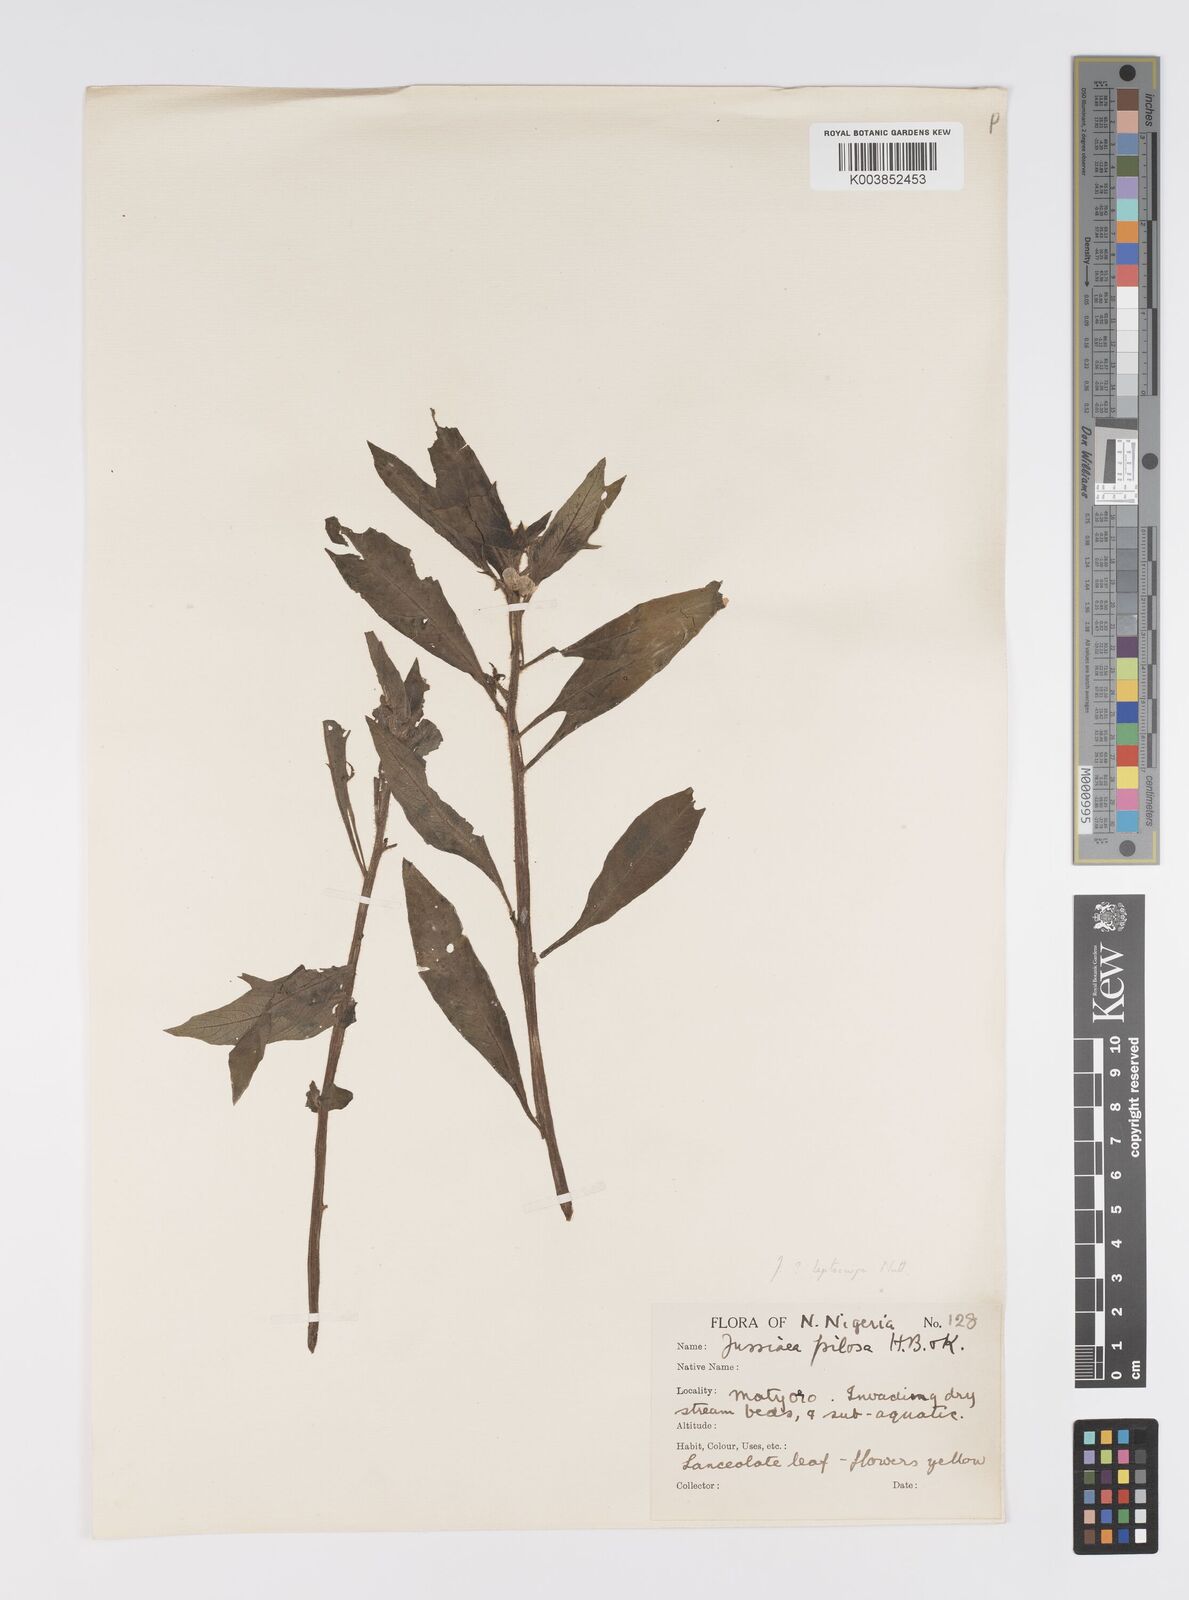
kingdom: Plantae
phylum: Tracheophyta
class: Magnoliopsida
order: Myrtales
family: Onagraceae
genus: Ludwigia
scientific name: Ludwigia leptocarpa
